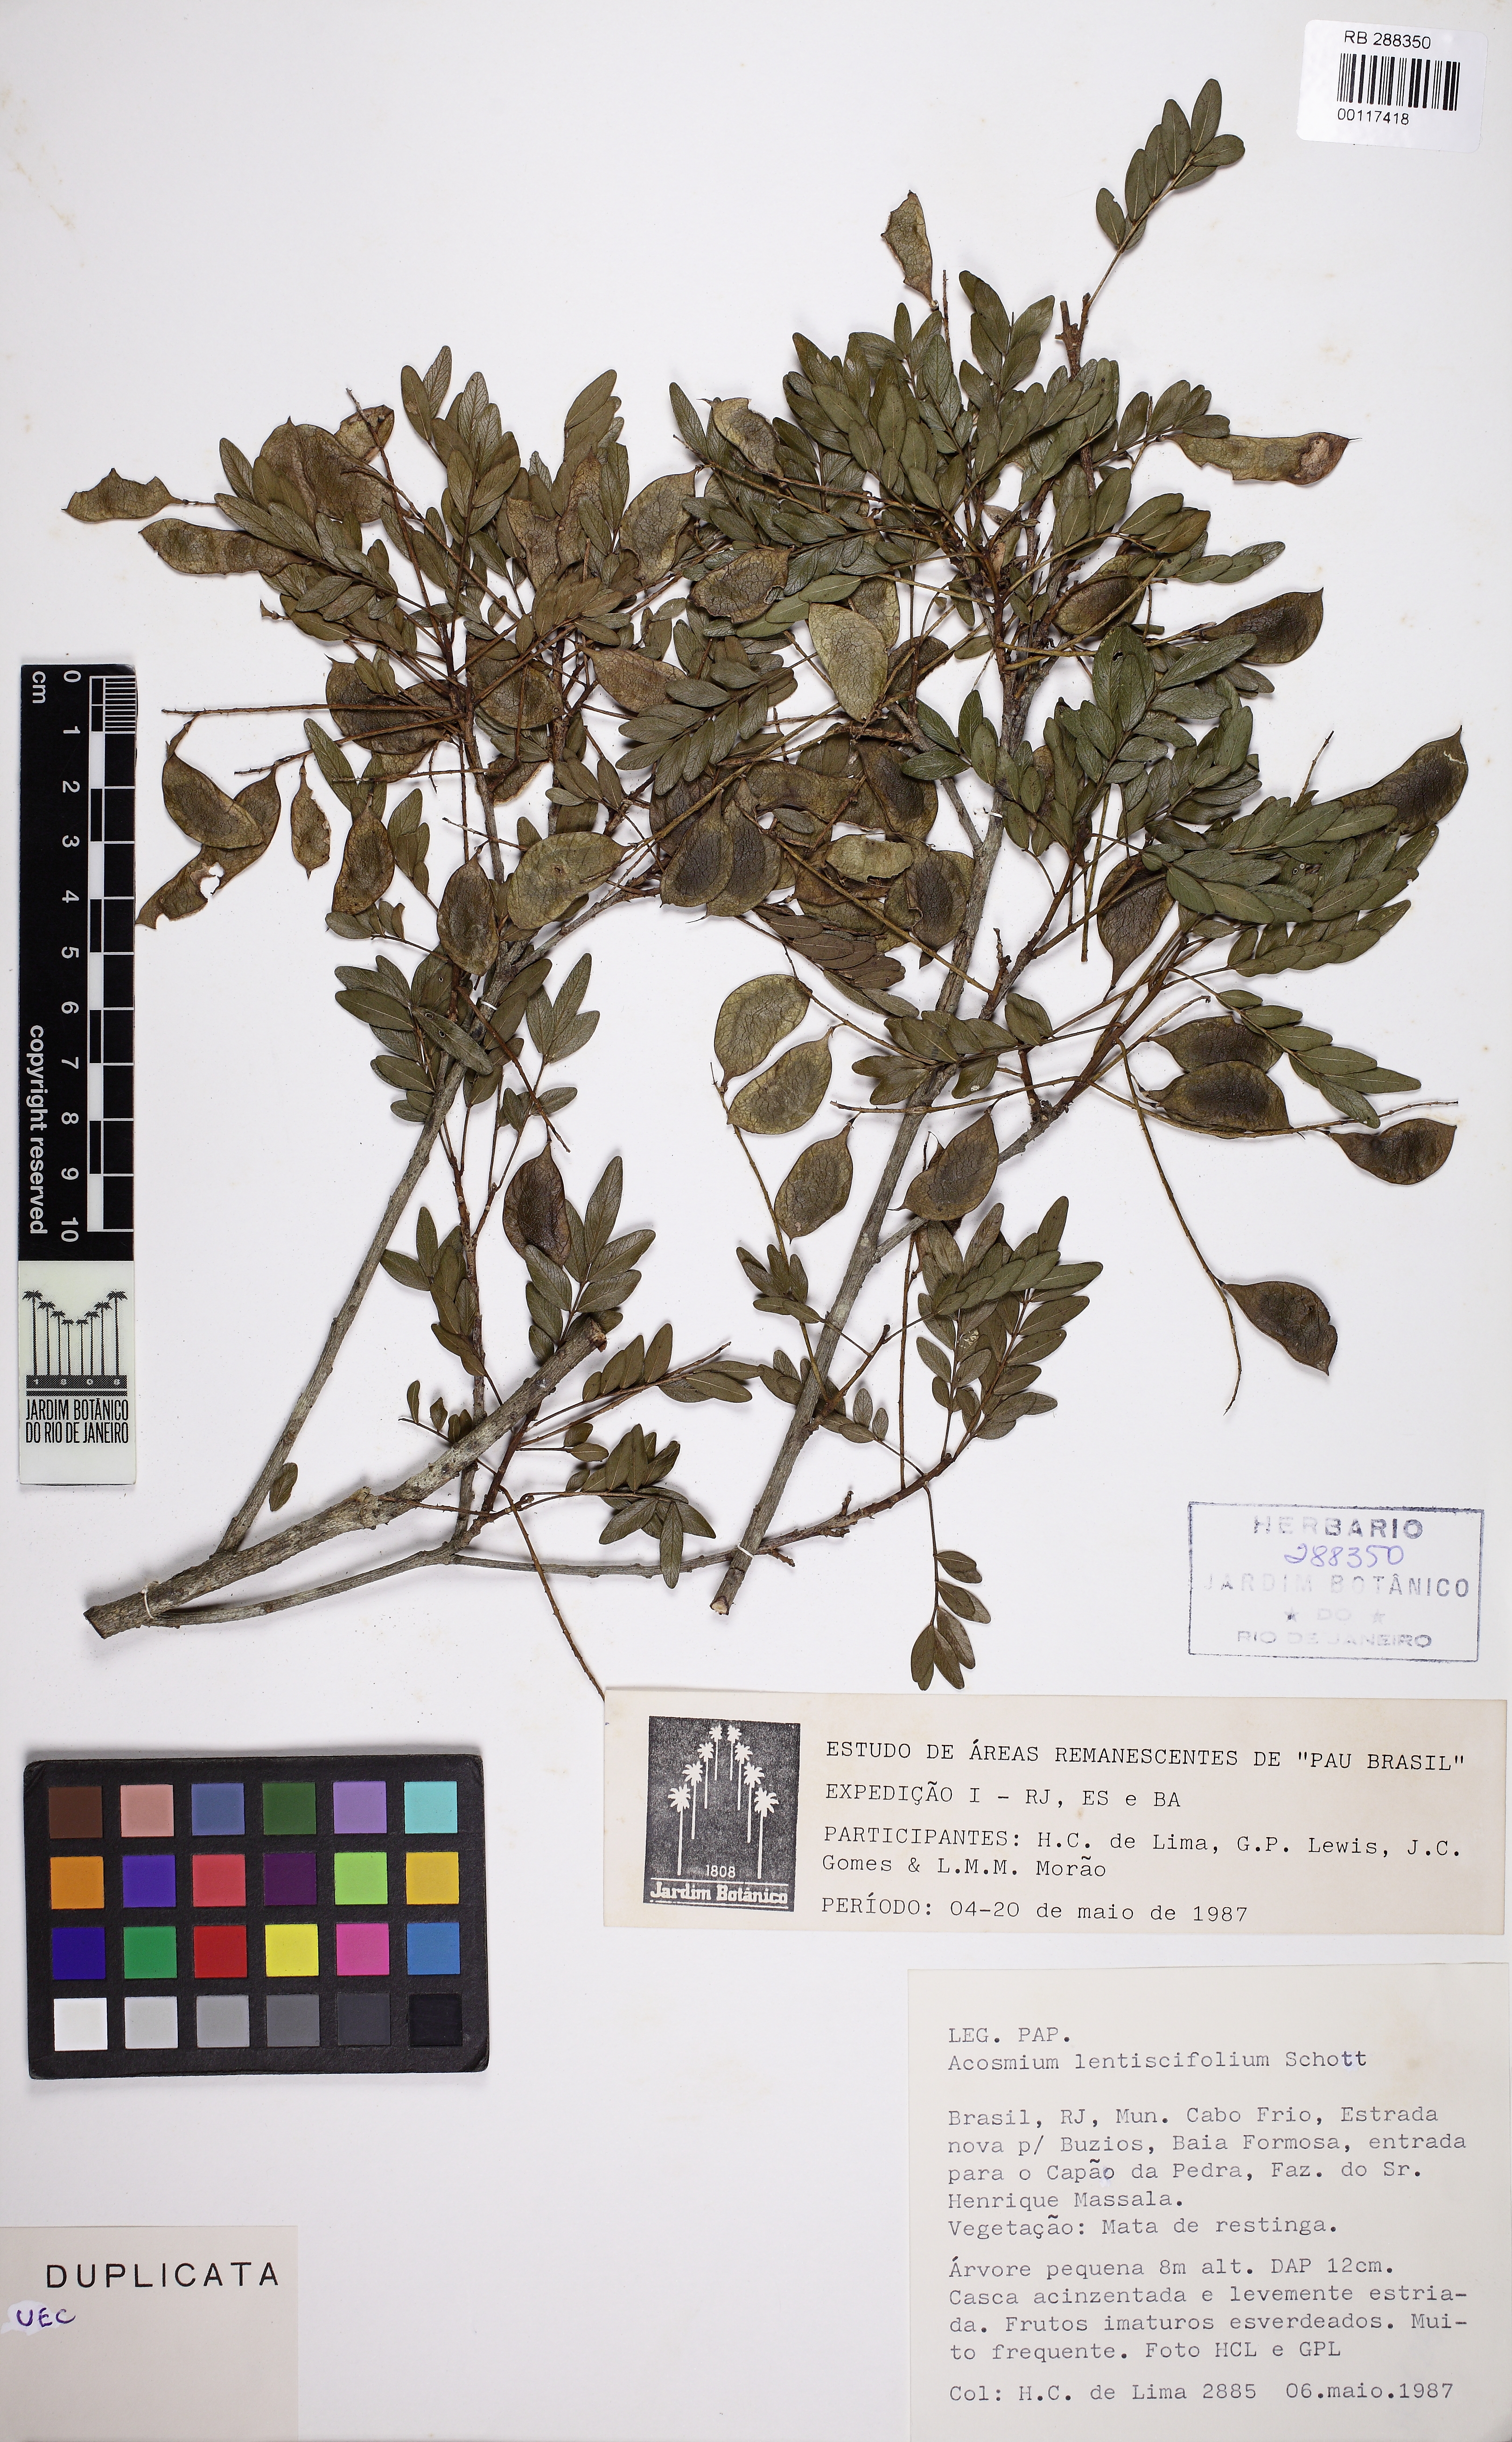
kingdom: Plantae
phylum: Tracheophyta
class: Magnoliopsida
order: Fabales
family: Fabaceae
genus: Acosmium
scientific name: Acosmium lentiscifolium
